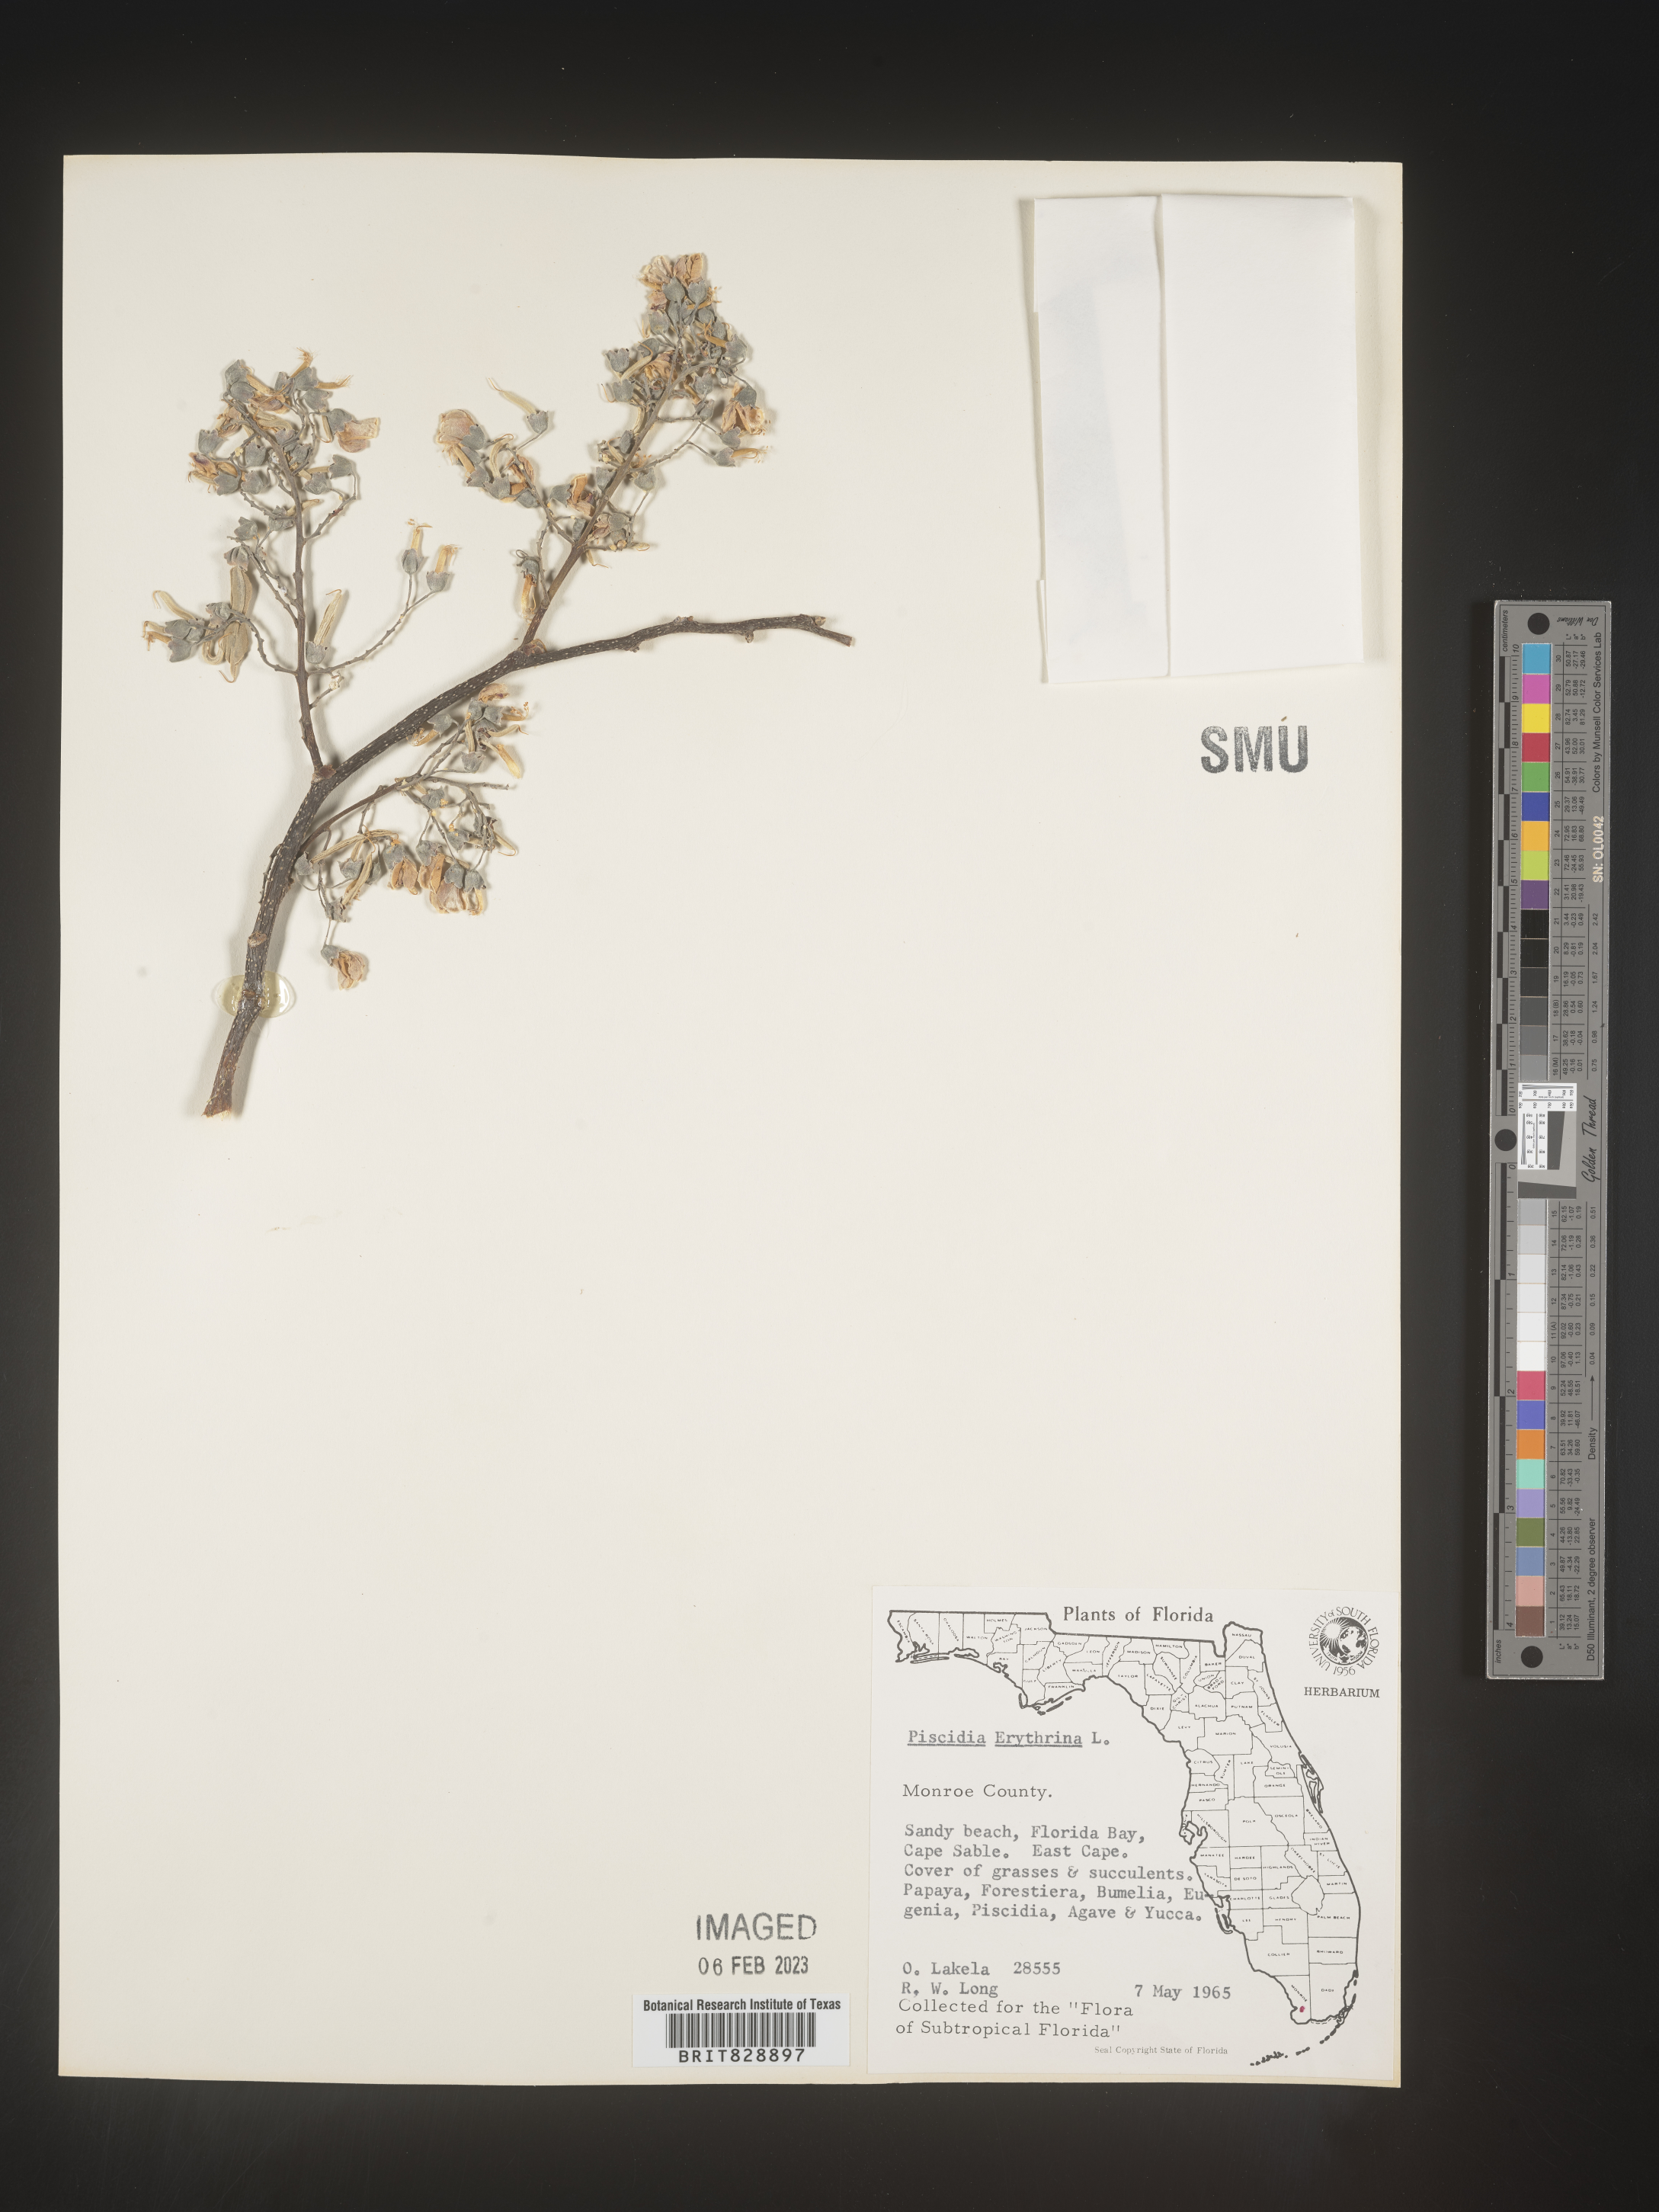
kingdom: Plantae
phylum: Tracheophyta
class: Magnoliopsida
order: Fabales
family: Fabaceae
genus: Piscidia
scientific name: Piscidia
